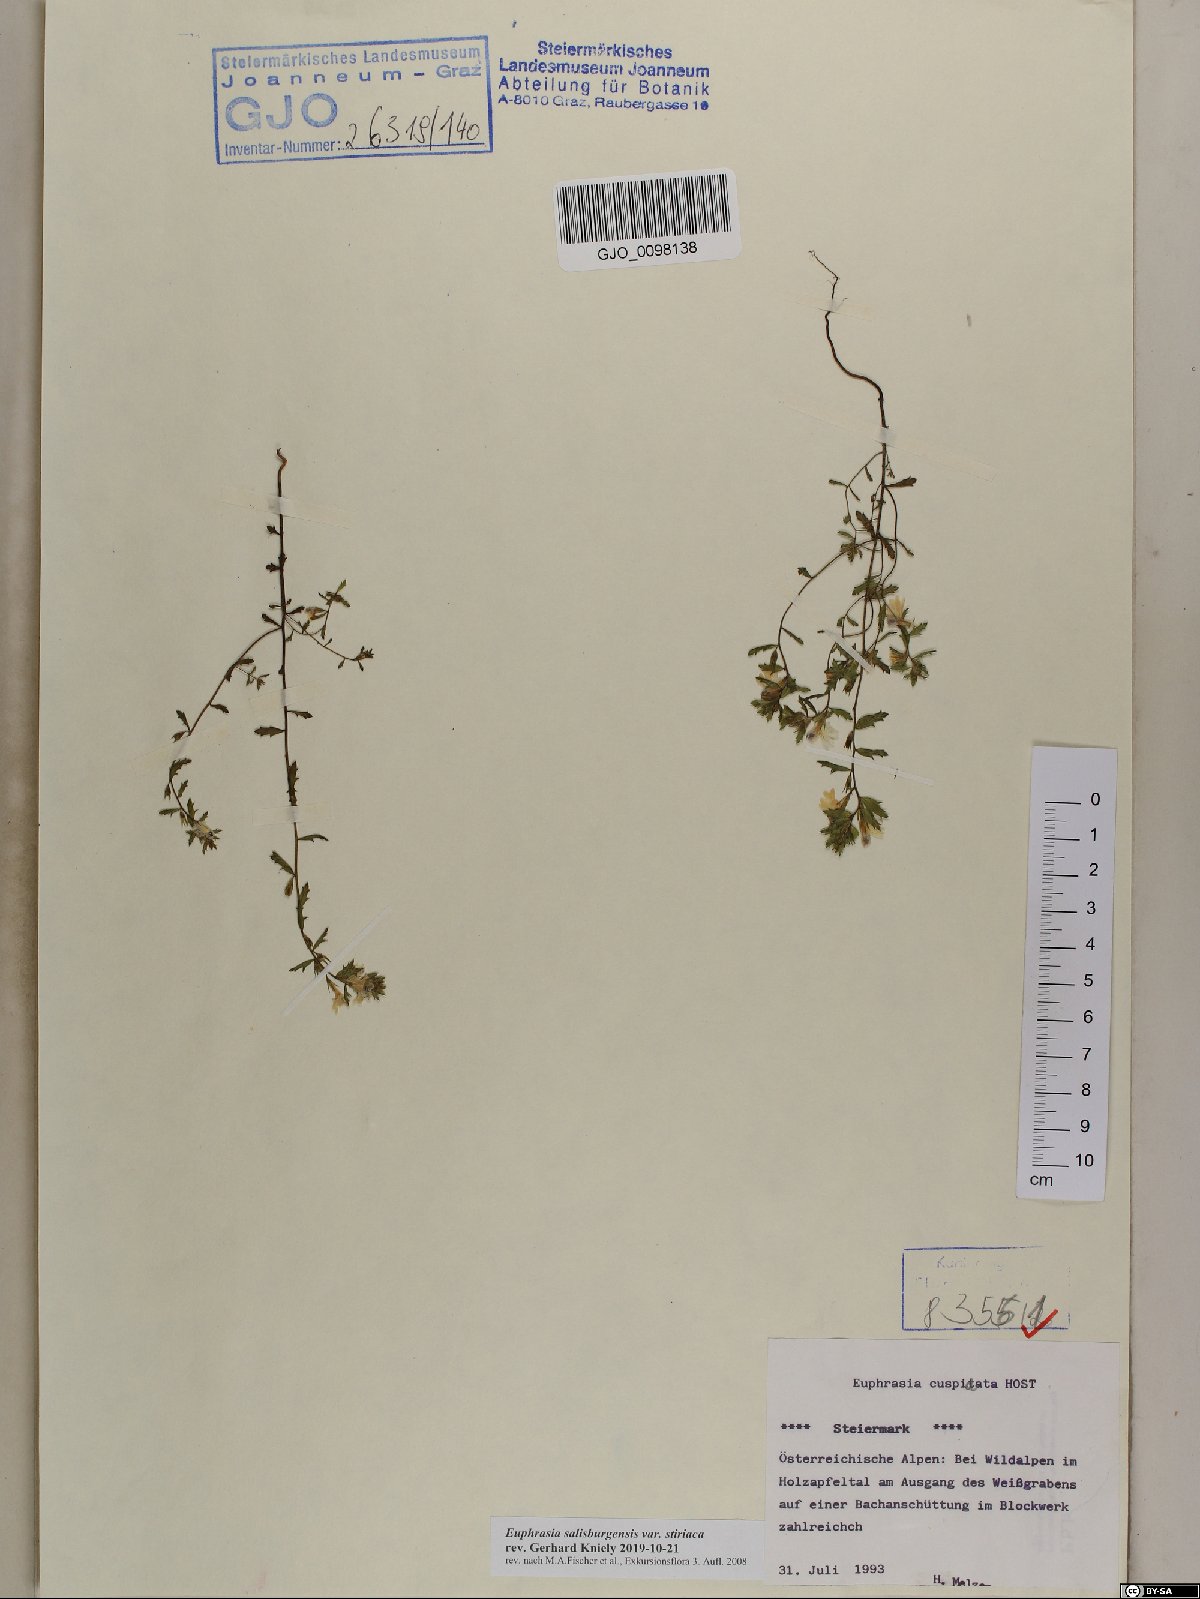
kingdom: Plantae
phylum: Tracheophyta
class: Magnoliopsida
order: Lamiales
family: Orobanchaceae
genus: Euphrasia
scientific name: Euphrasia salisburgensis
